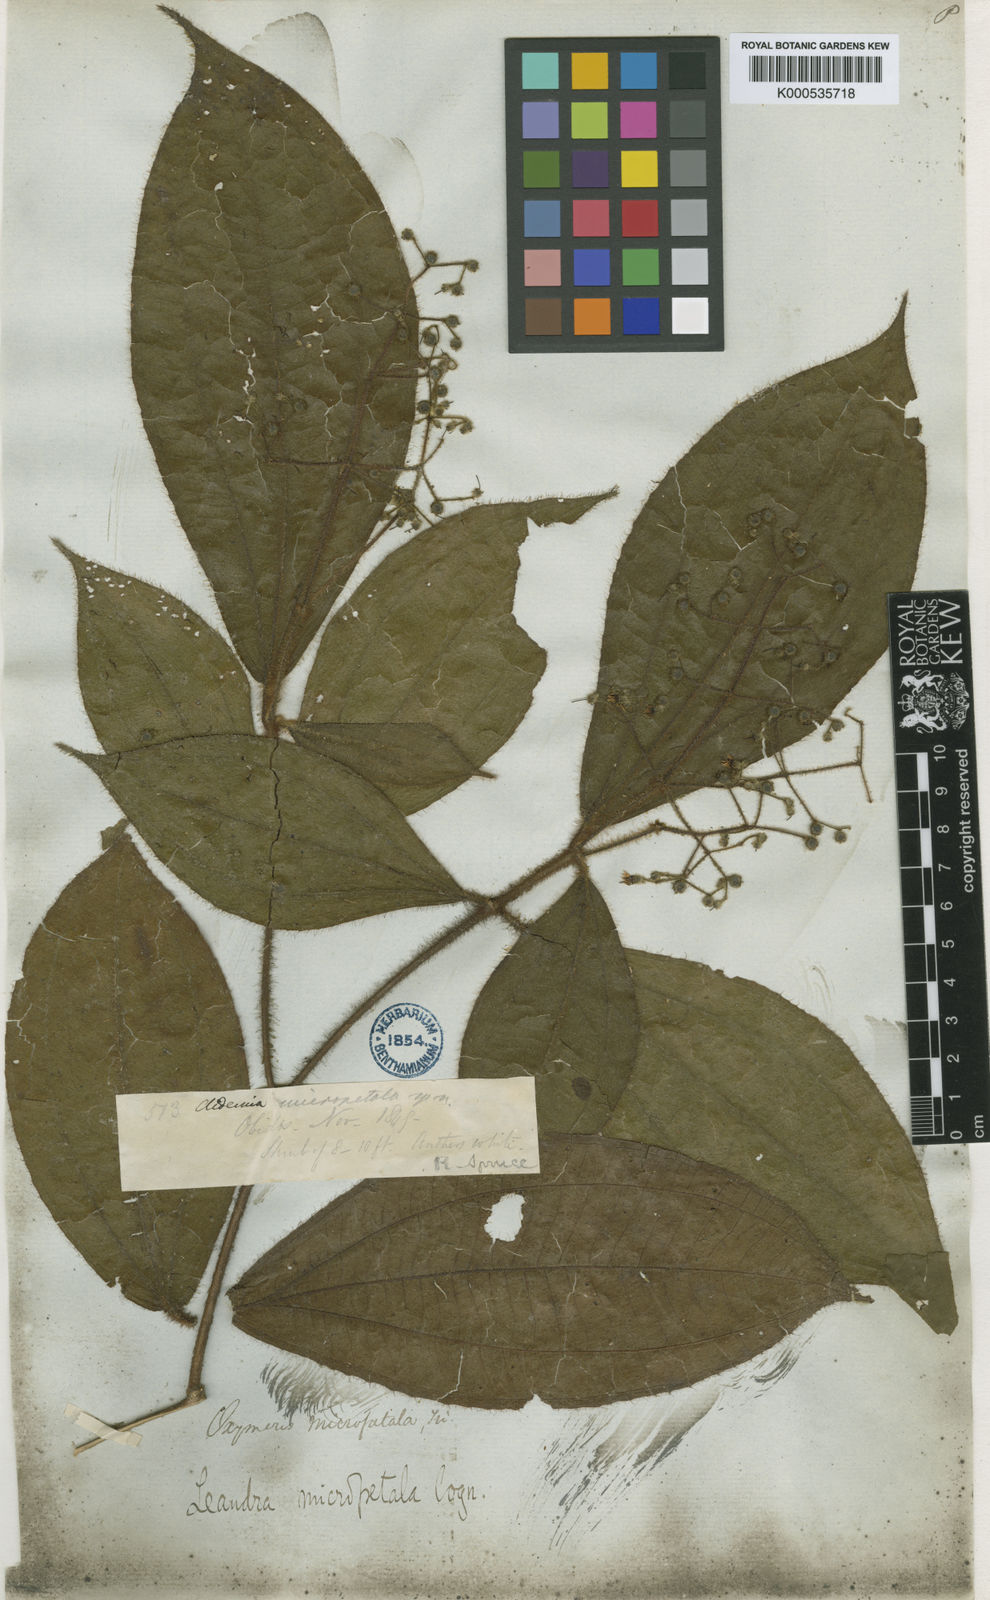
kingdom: Plantae
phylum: Tracheophyta
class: Magnoliopsida
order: Myrtales
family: Melastomataceae
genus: Miconia
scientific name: Miconia nanopetala
